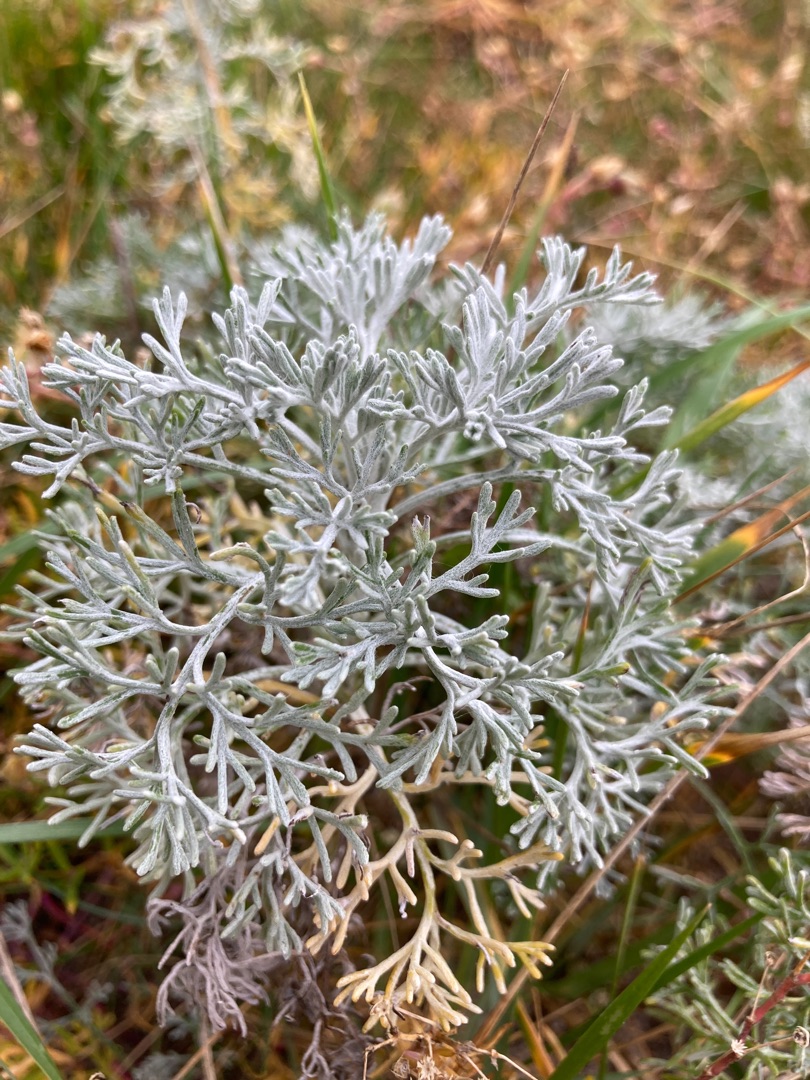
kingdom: Plantae
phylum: Tracheophyta
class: Magnoliopsida
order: Asterales
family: Asteraceae
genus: Artemisia
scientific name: Artemisia maritima
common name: Strandmalurt
